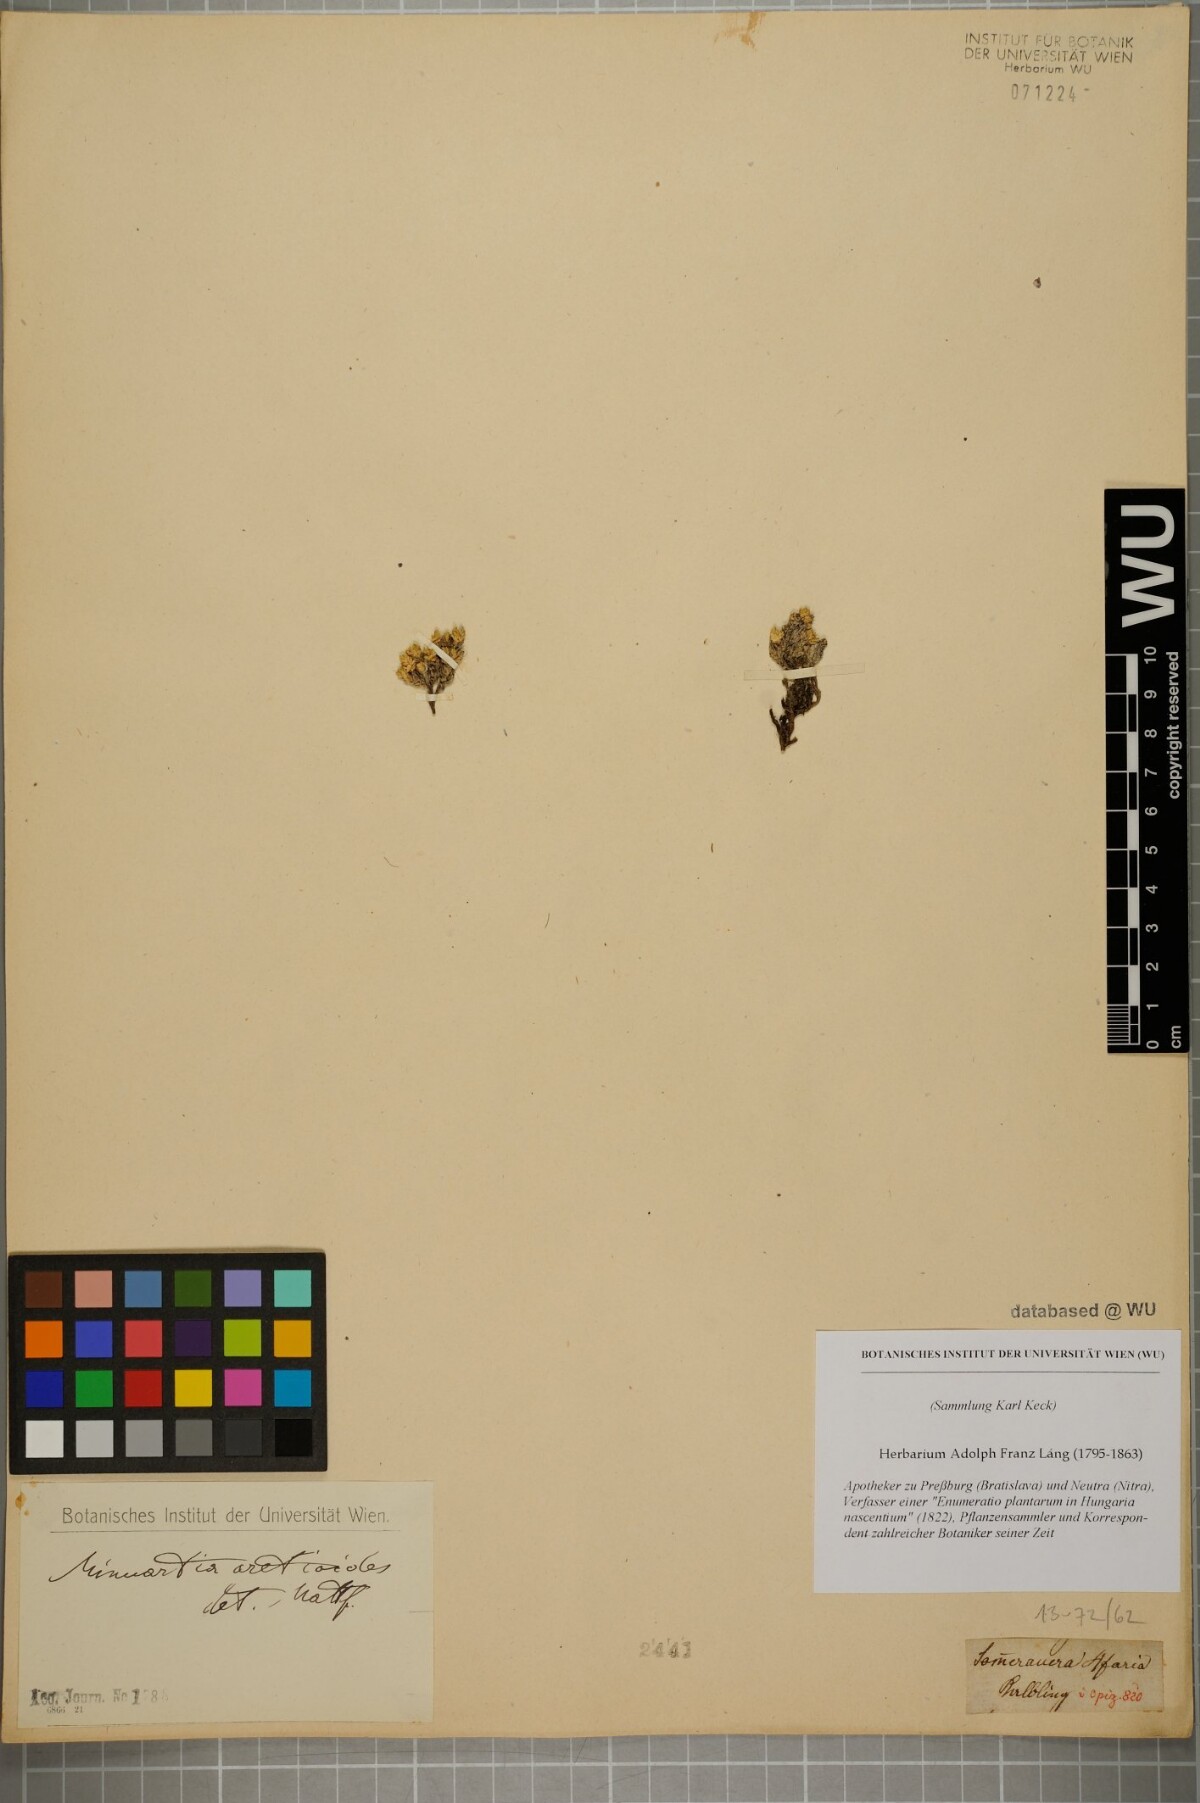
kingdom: Plantae
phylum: Tracheophyta
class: Magnoliopsida
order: Caryophyllales
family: Caryophyllaceae
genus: Facchinia
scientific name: Facchinia cherlerioides
